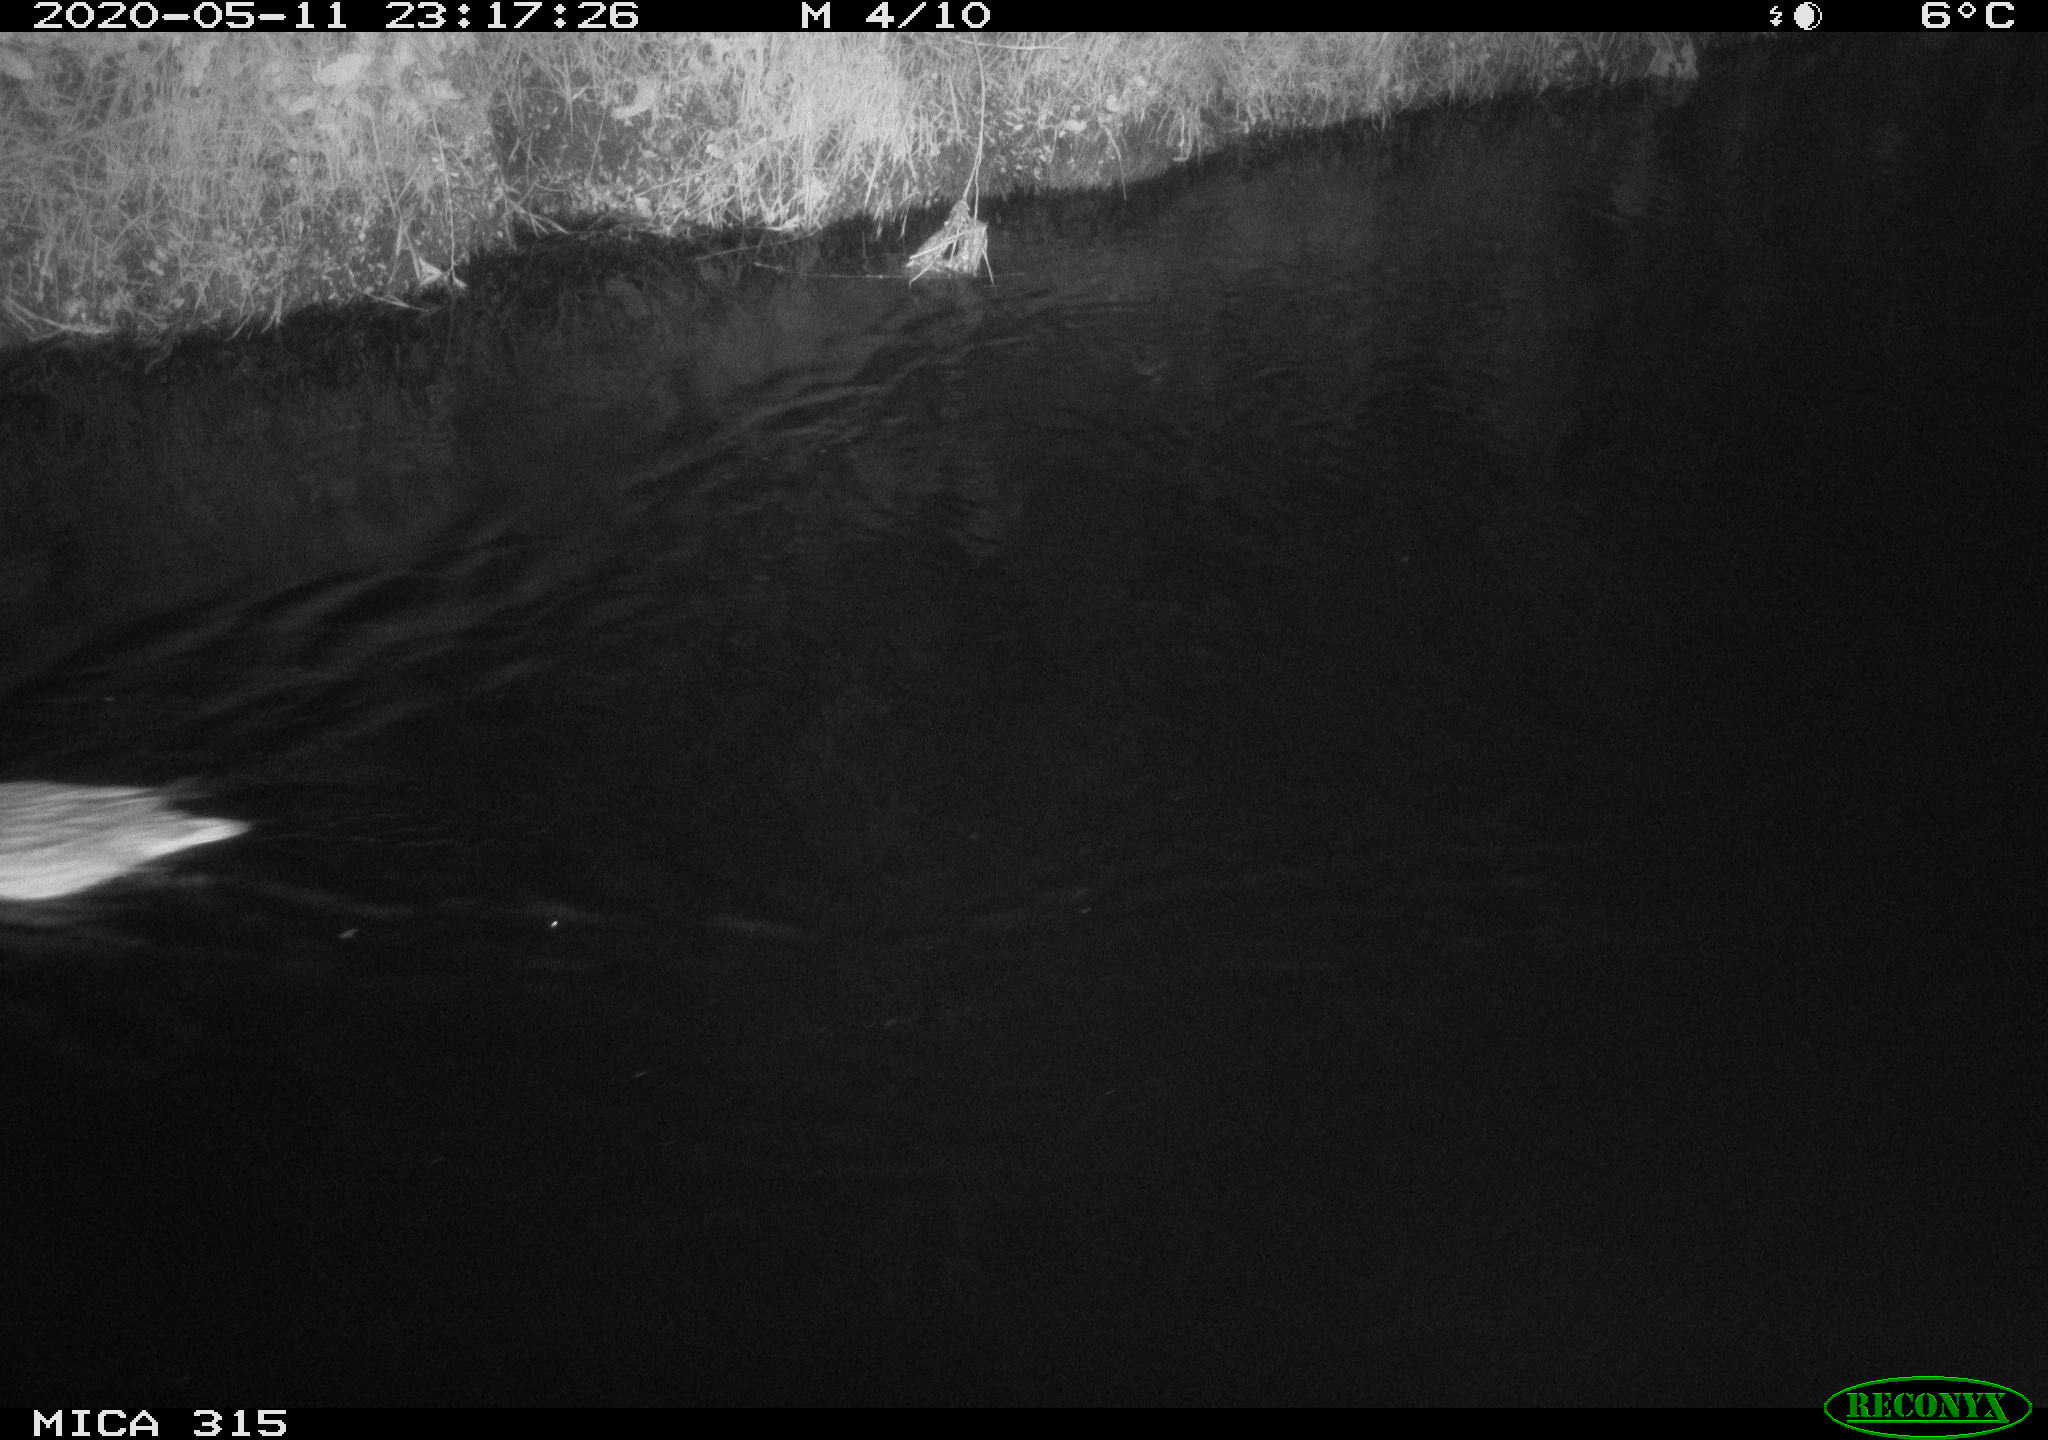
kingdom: Animalia
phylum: Chordata
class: Aves
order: Anseriformes
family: Anatidae
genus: Anas
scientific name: Anas platyrhynchos
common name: Mallard
